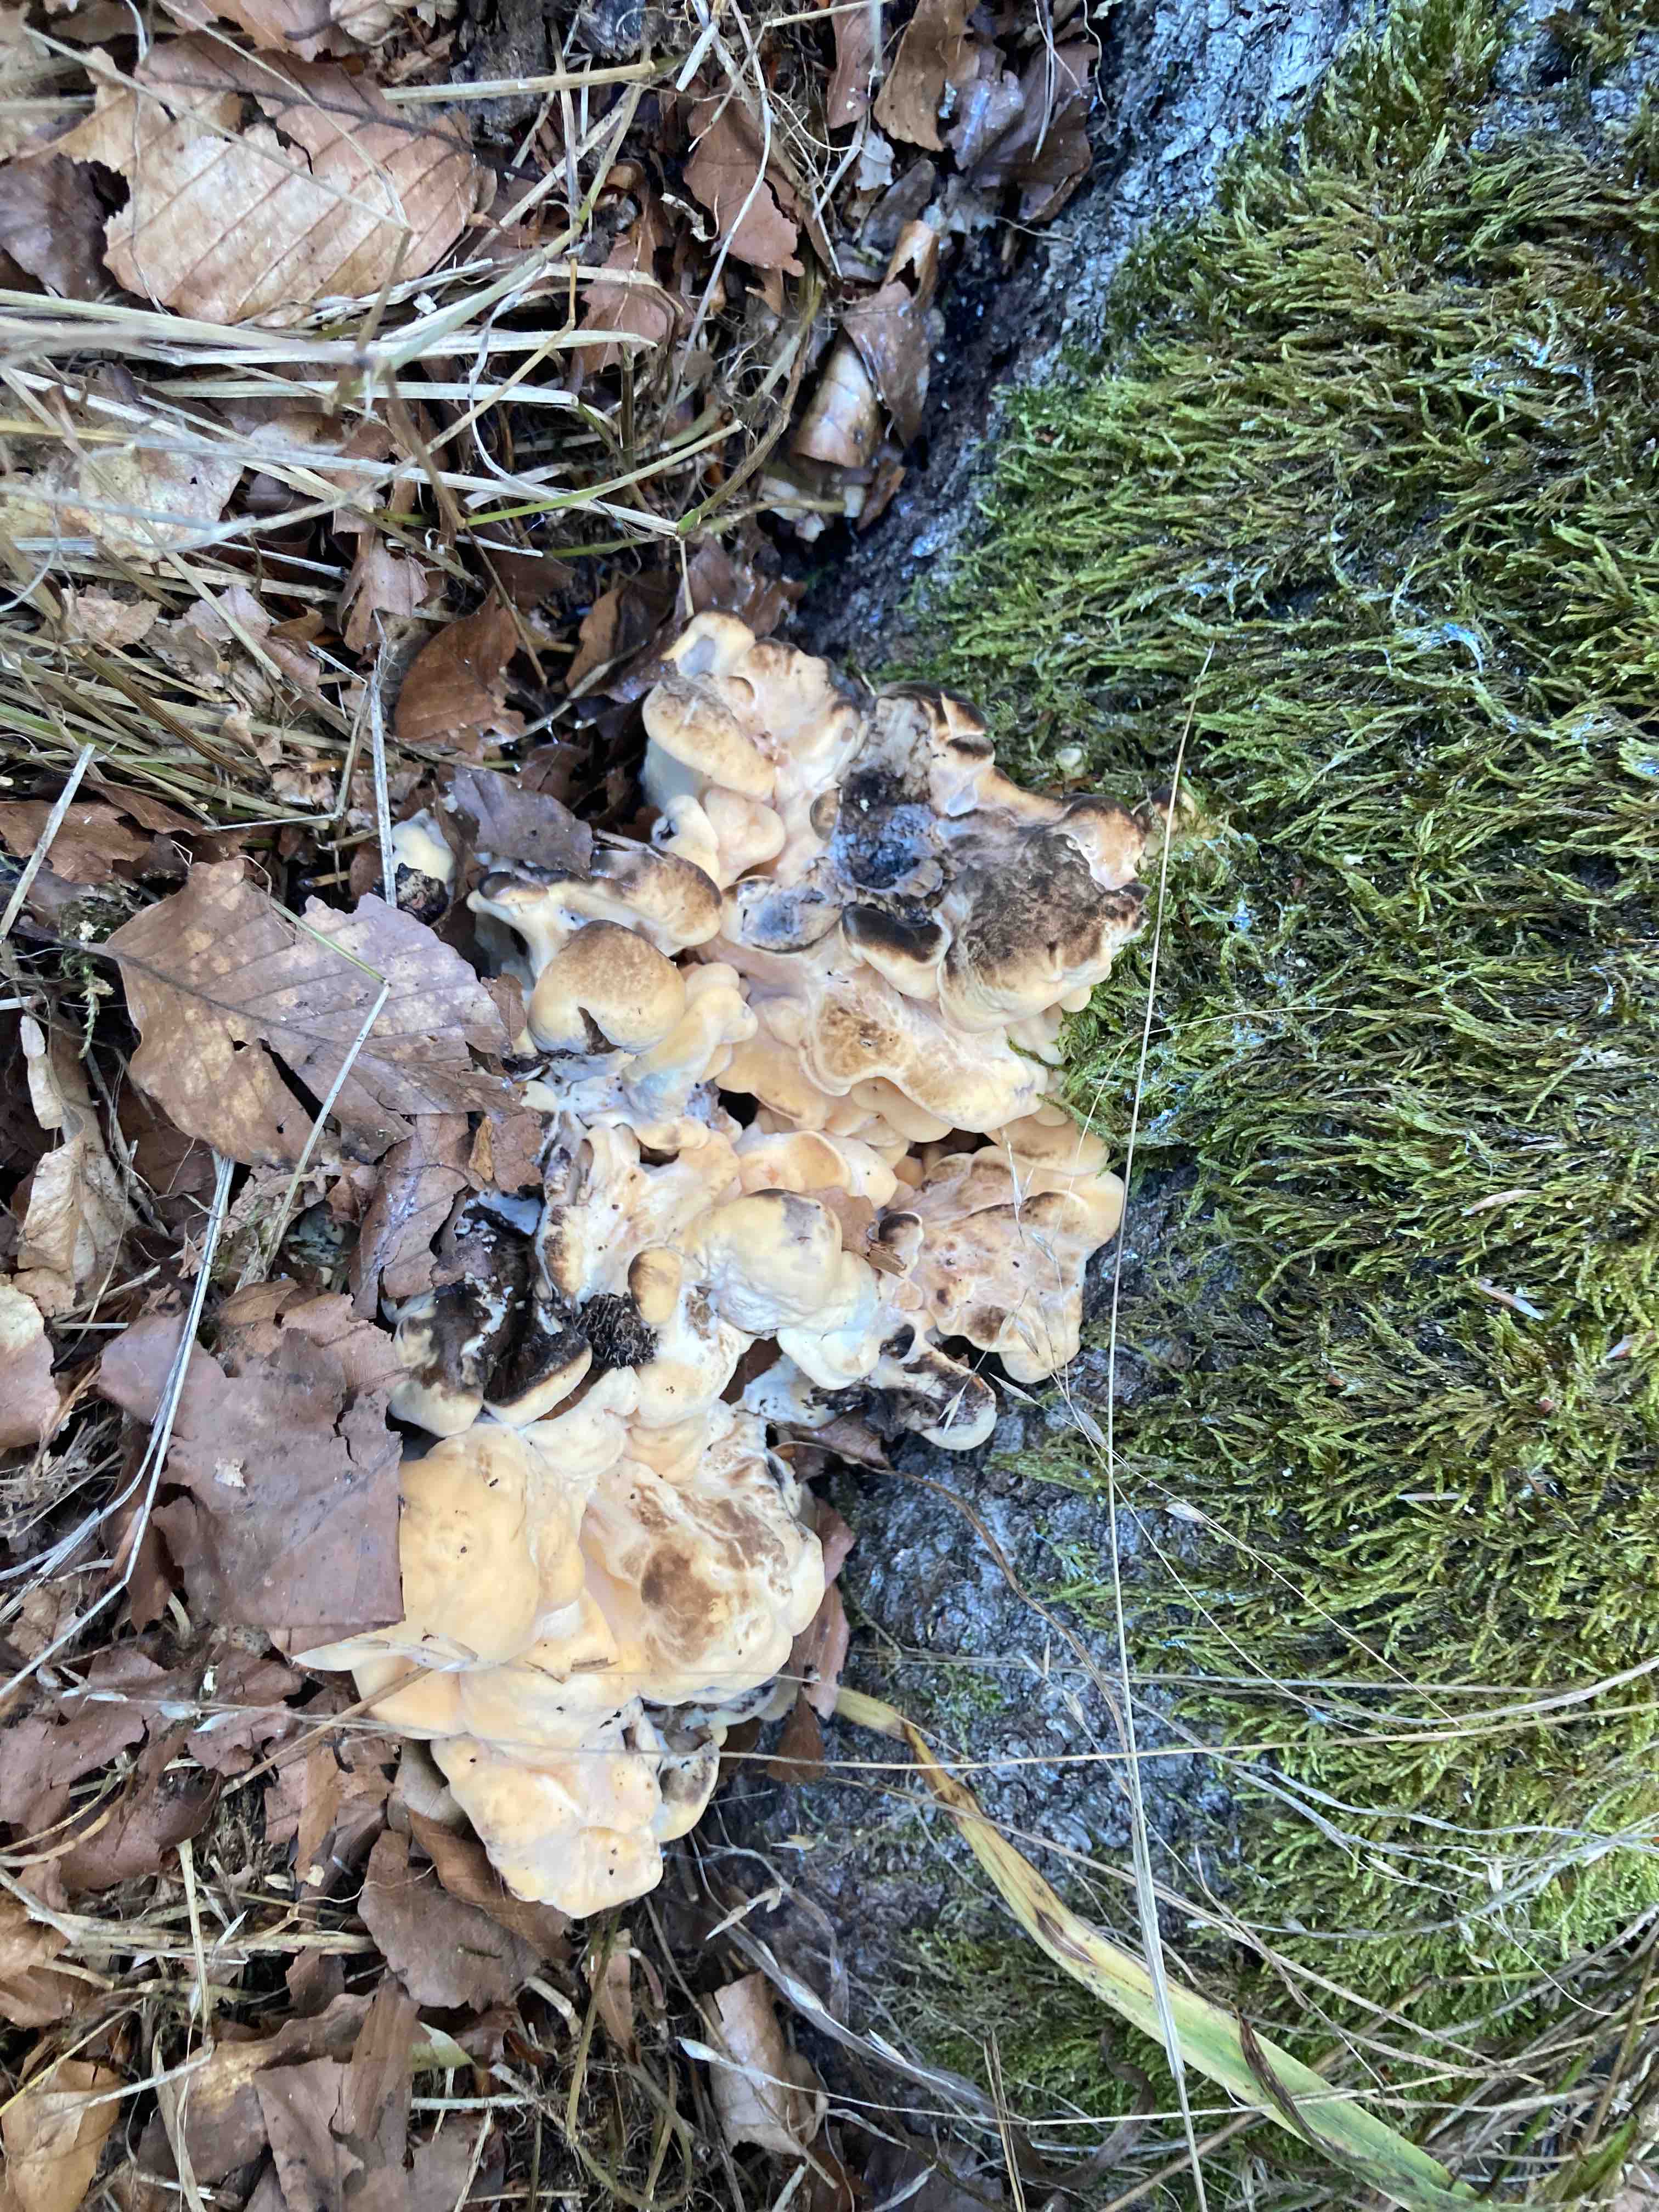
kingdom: Fungi
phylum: Basidiomycota
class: Agaricomycetes
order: Polyporales
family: Meripilaceae
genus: Meripilus
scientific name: Meripilus giganteus
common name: kæmpeporesvamp
